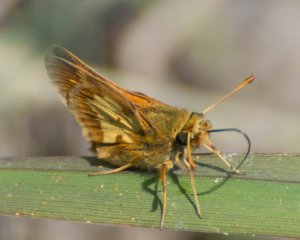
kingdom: Animalia
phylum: Arthropoda
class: Insecta
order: Lepidoptera
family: Hesperiidae
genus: Polites
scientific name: Polites coras
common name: Peck's Skipper
